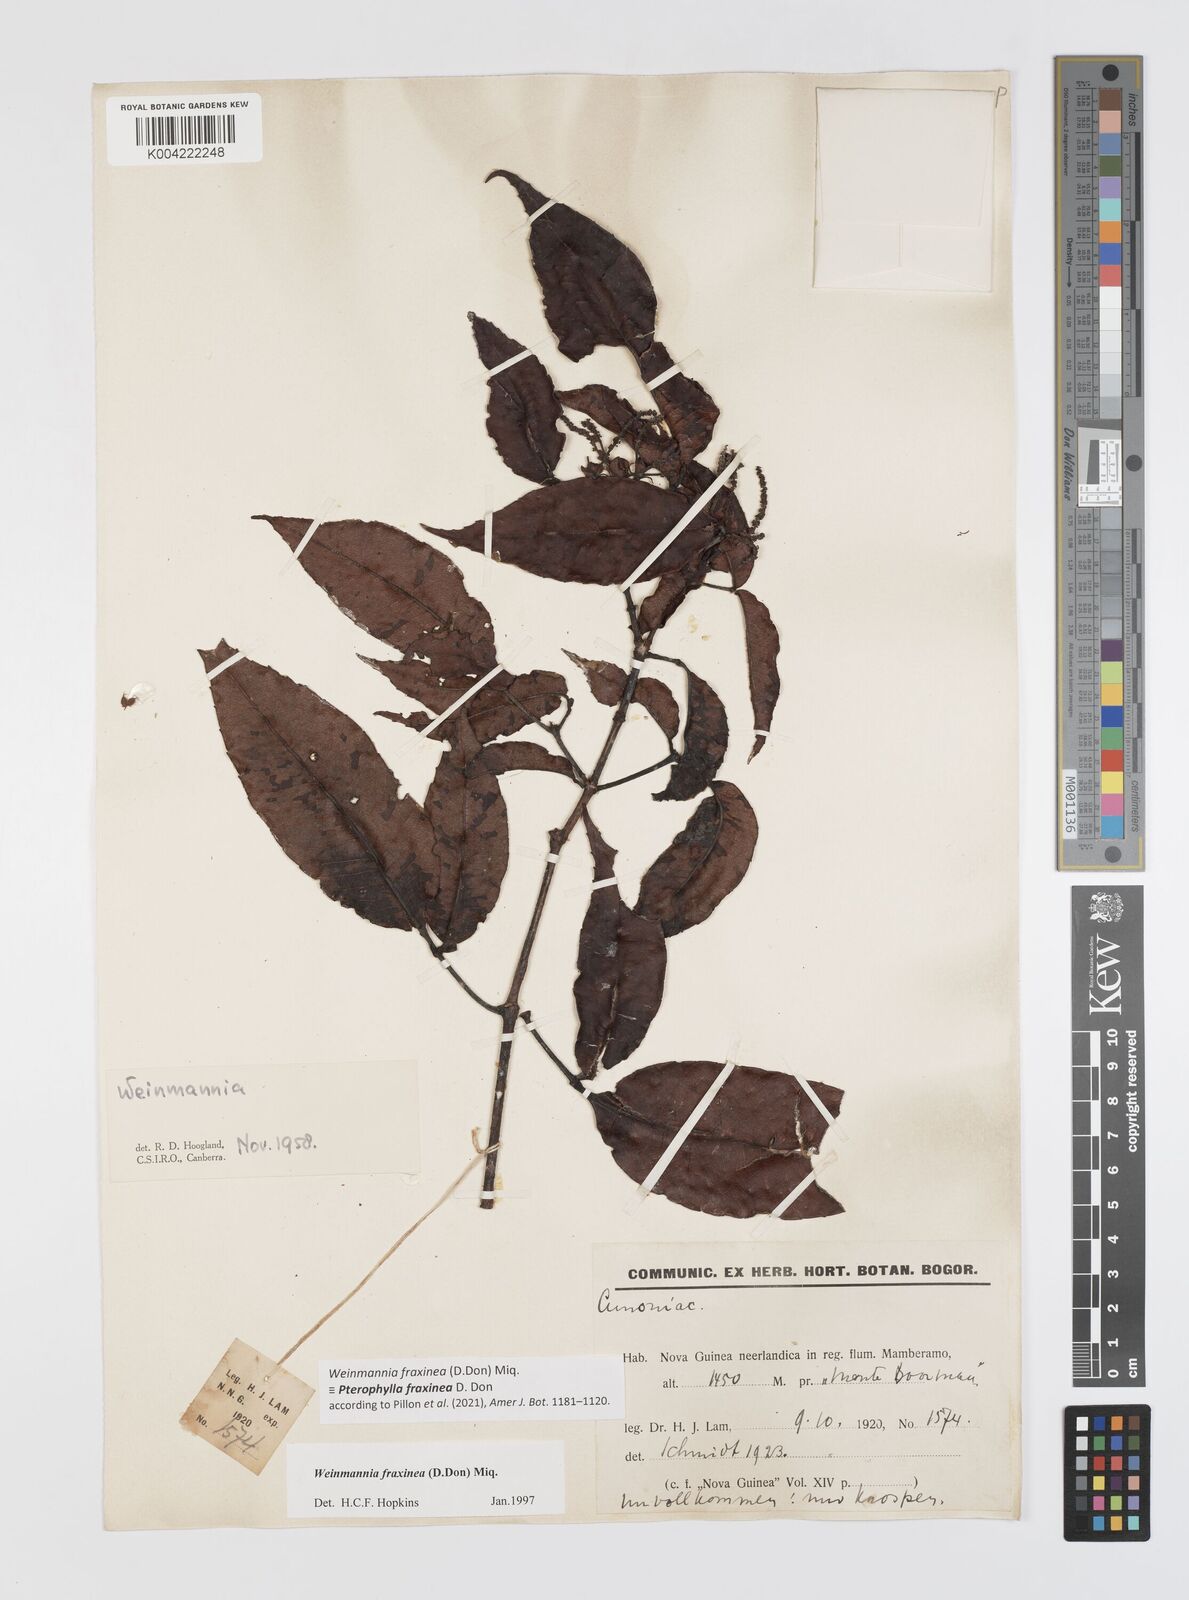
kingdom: Plantae
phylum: Tracheophyta
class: Magnoliopsida
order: Oxalidales
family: Cunoniaceae
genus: Pterophylla
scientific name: Pterophylla fraxinea
